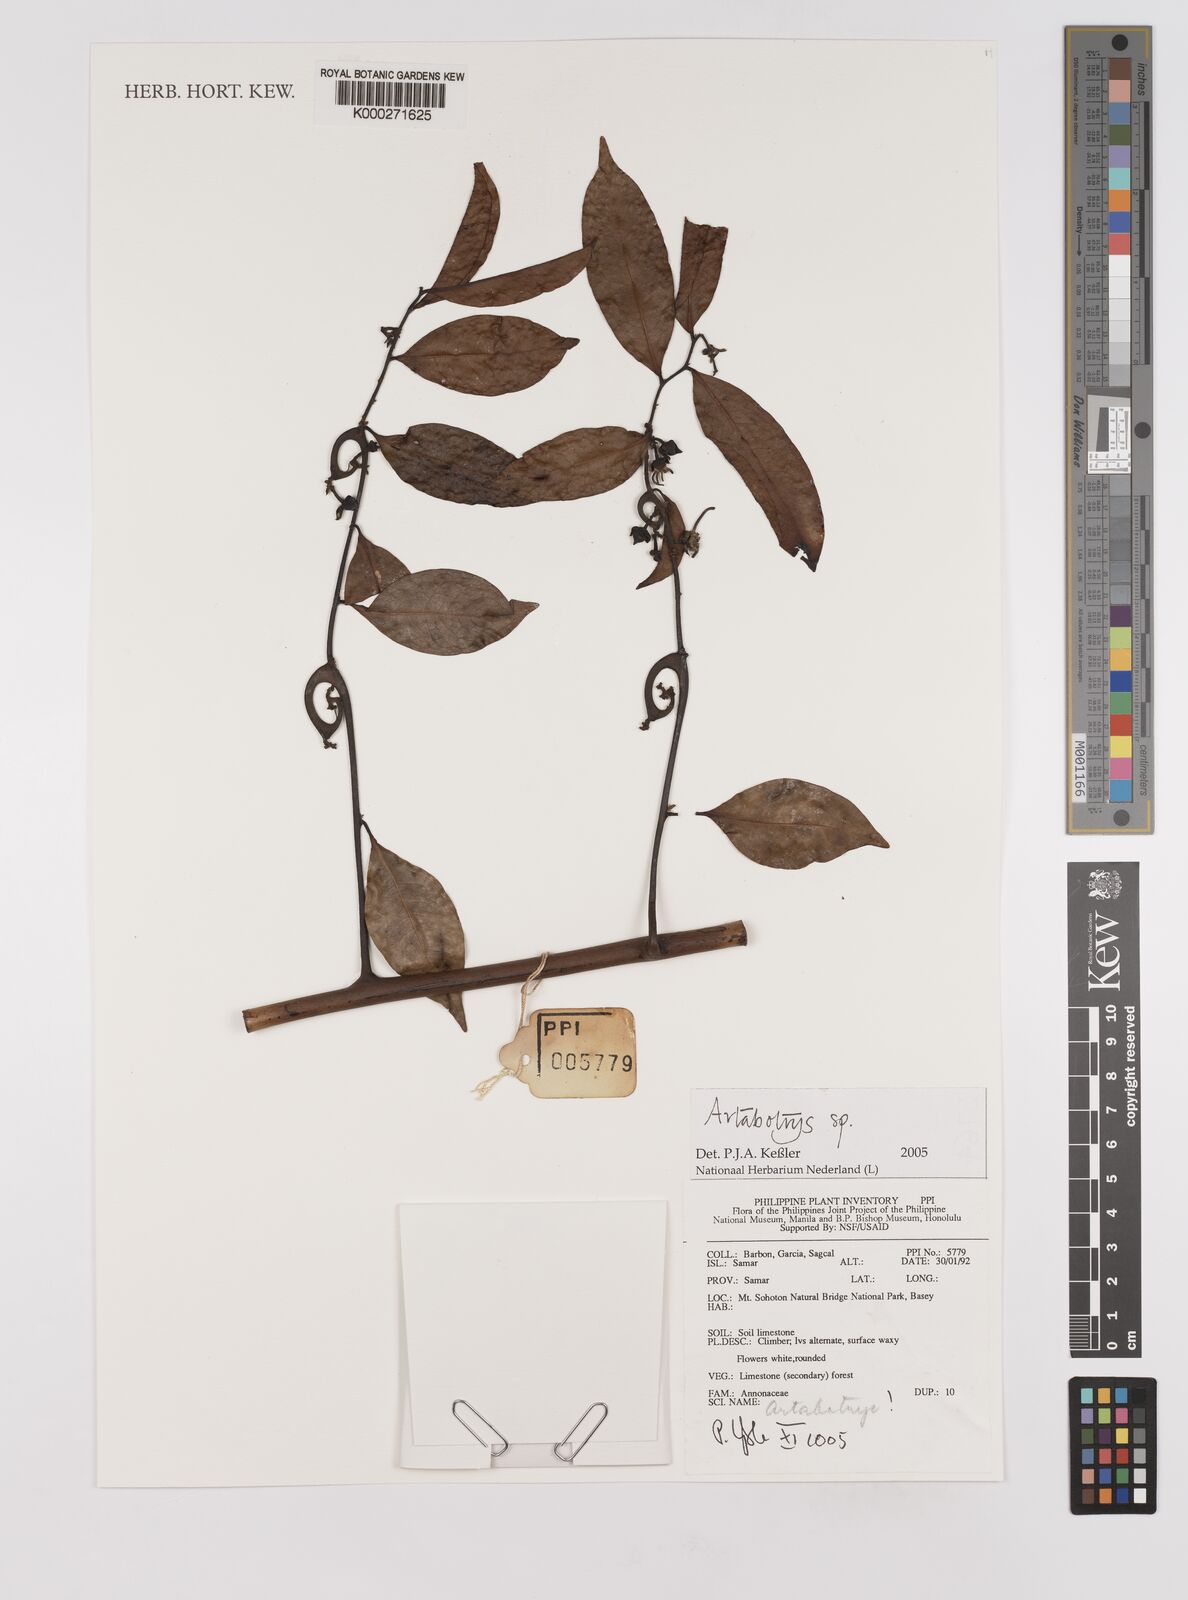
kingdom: Plantae
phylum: Tracheophyta
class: Magnoliopsida
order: Magnoliales
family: Annonaceae
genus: Artabotrys
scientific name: Artabotrys
